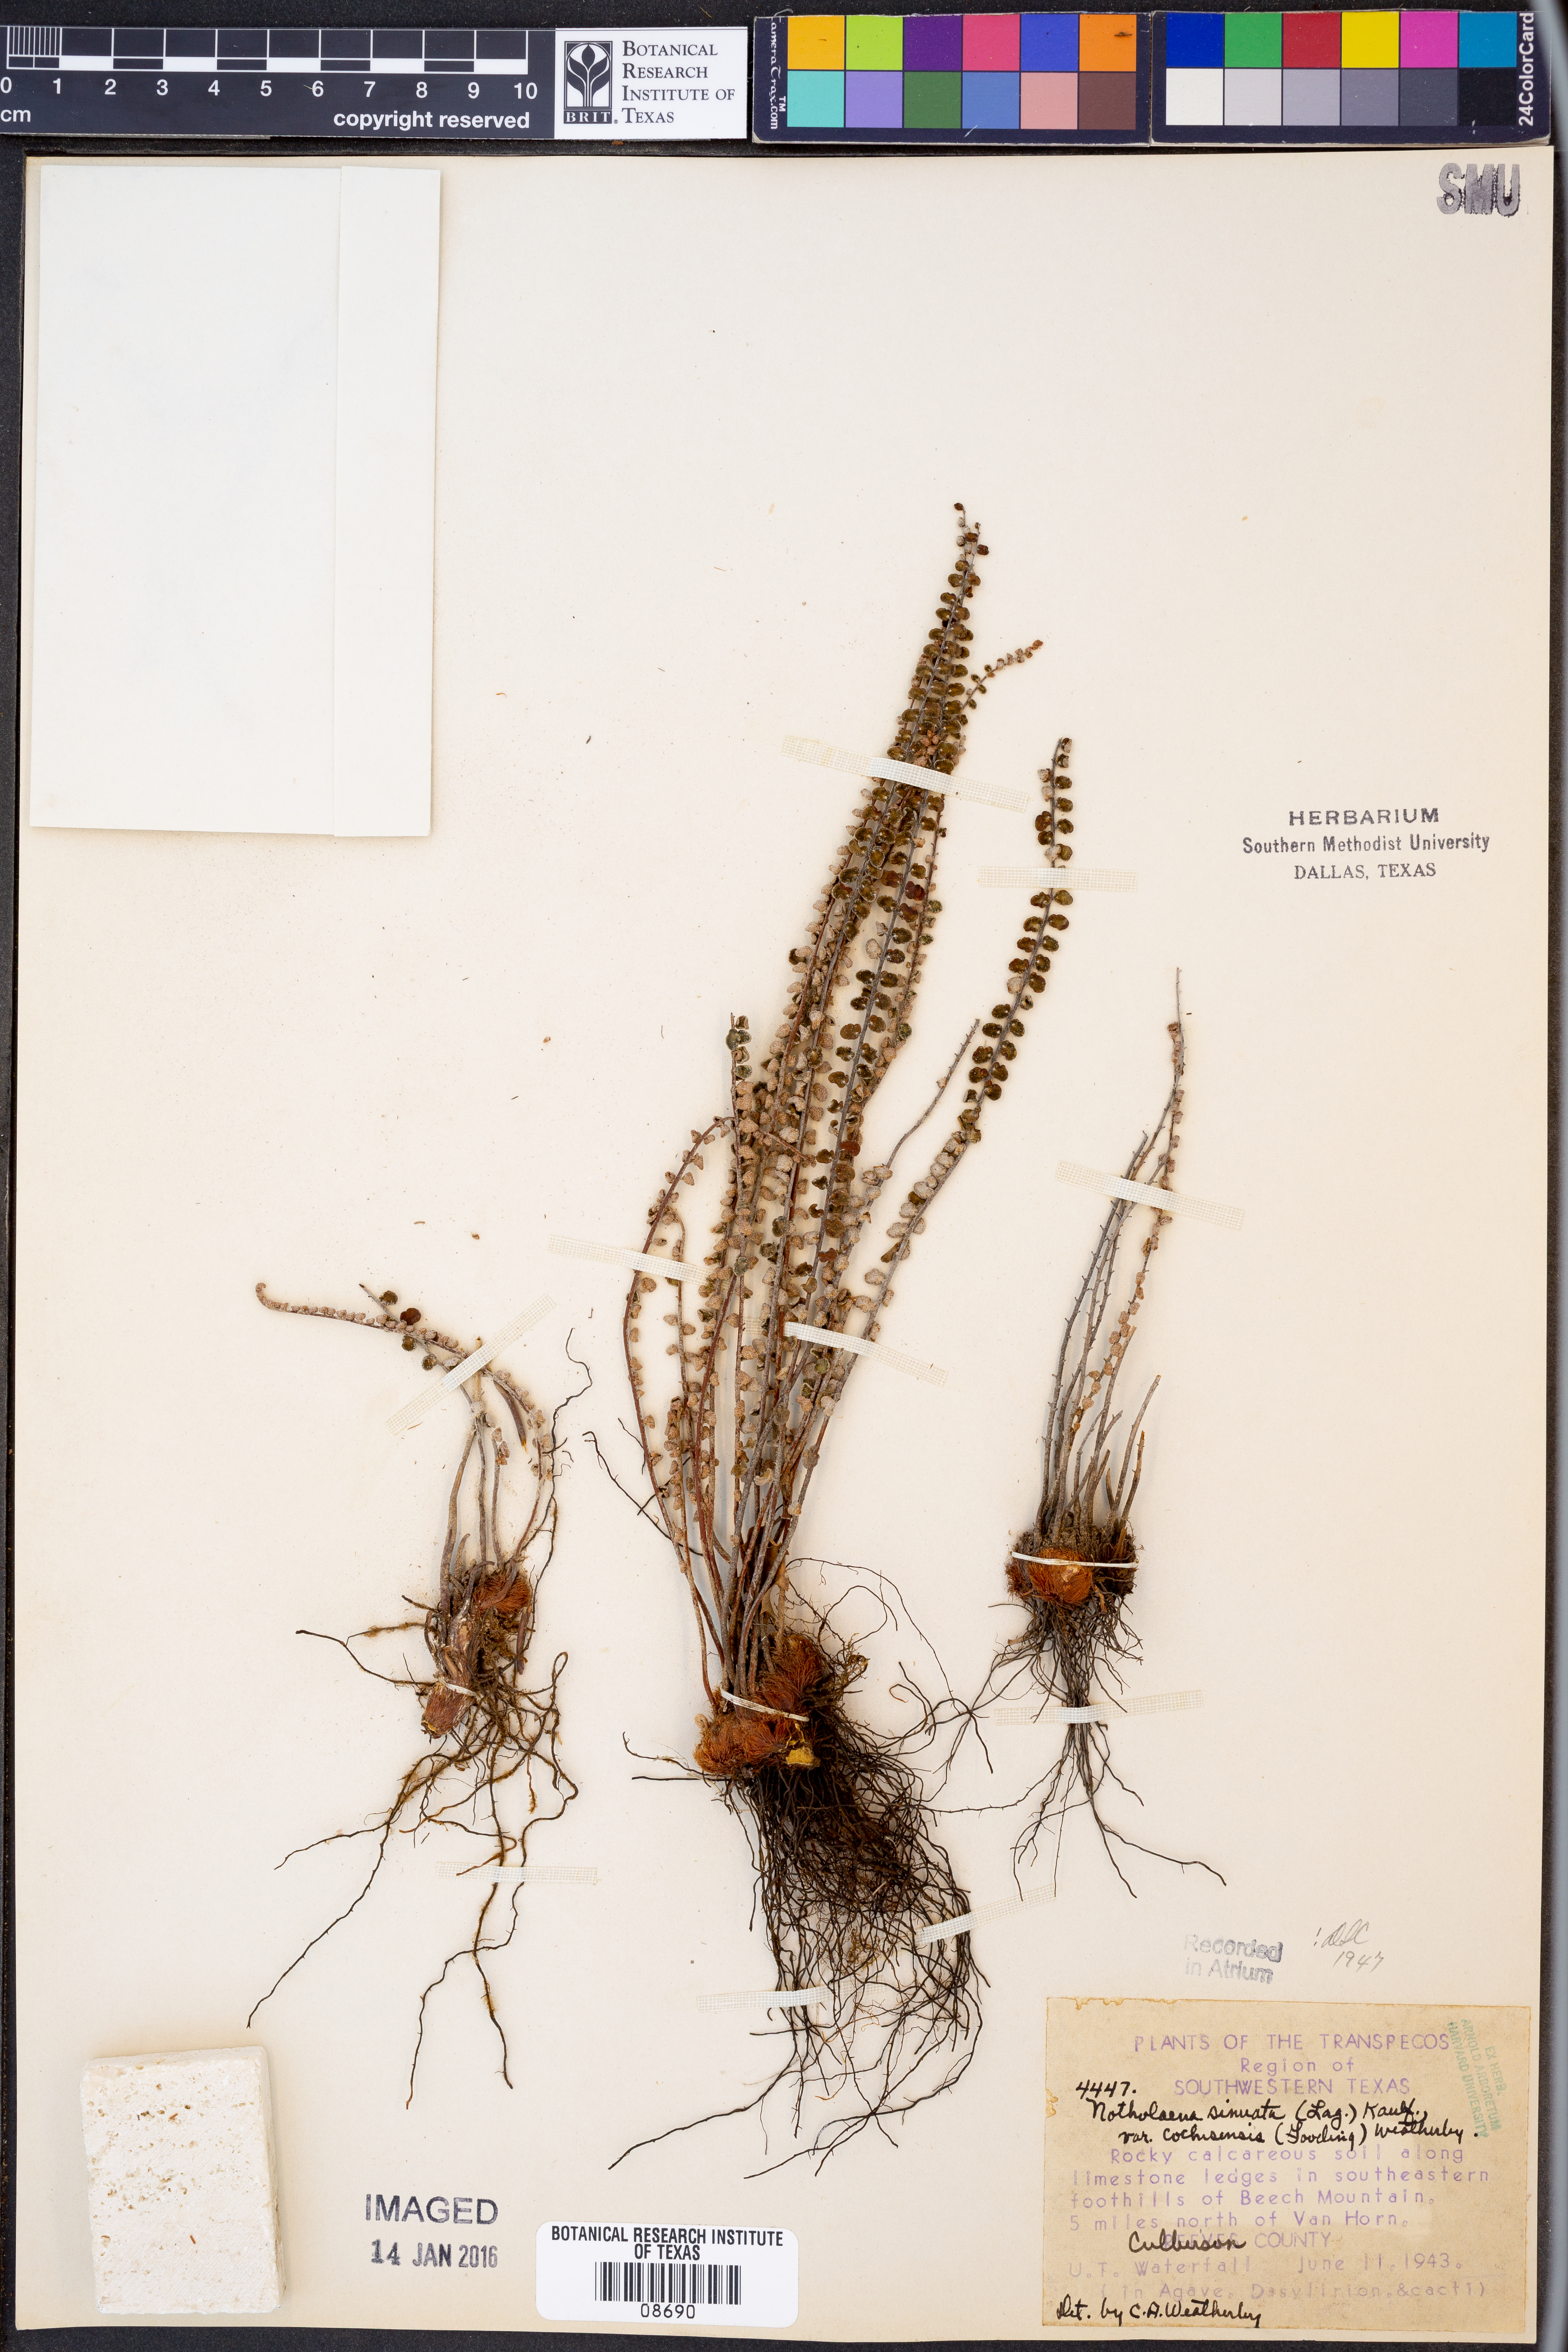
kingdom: Plantae
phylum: Tracheophyta
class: Polypodiopsida
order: Polypodiales
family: Pteridaceae
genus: Astrolepis
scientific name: Astrolepis cochisensis
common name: Scaly cloak fern
